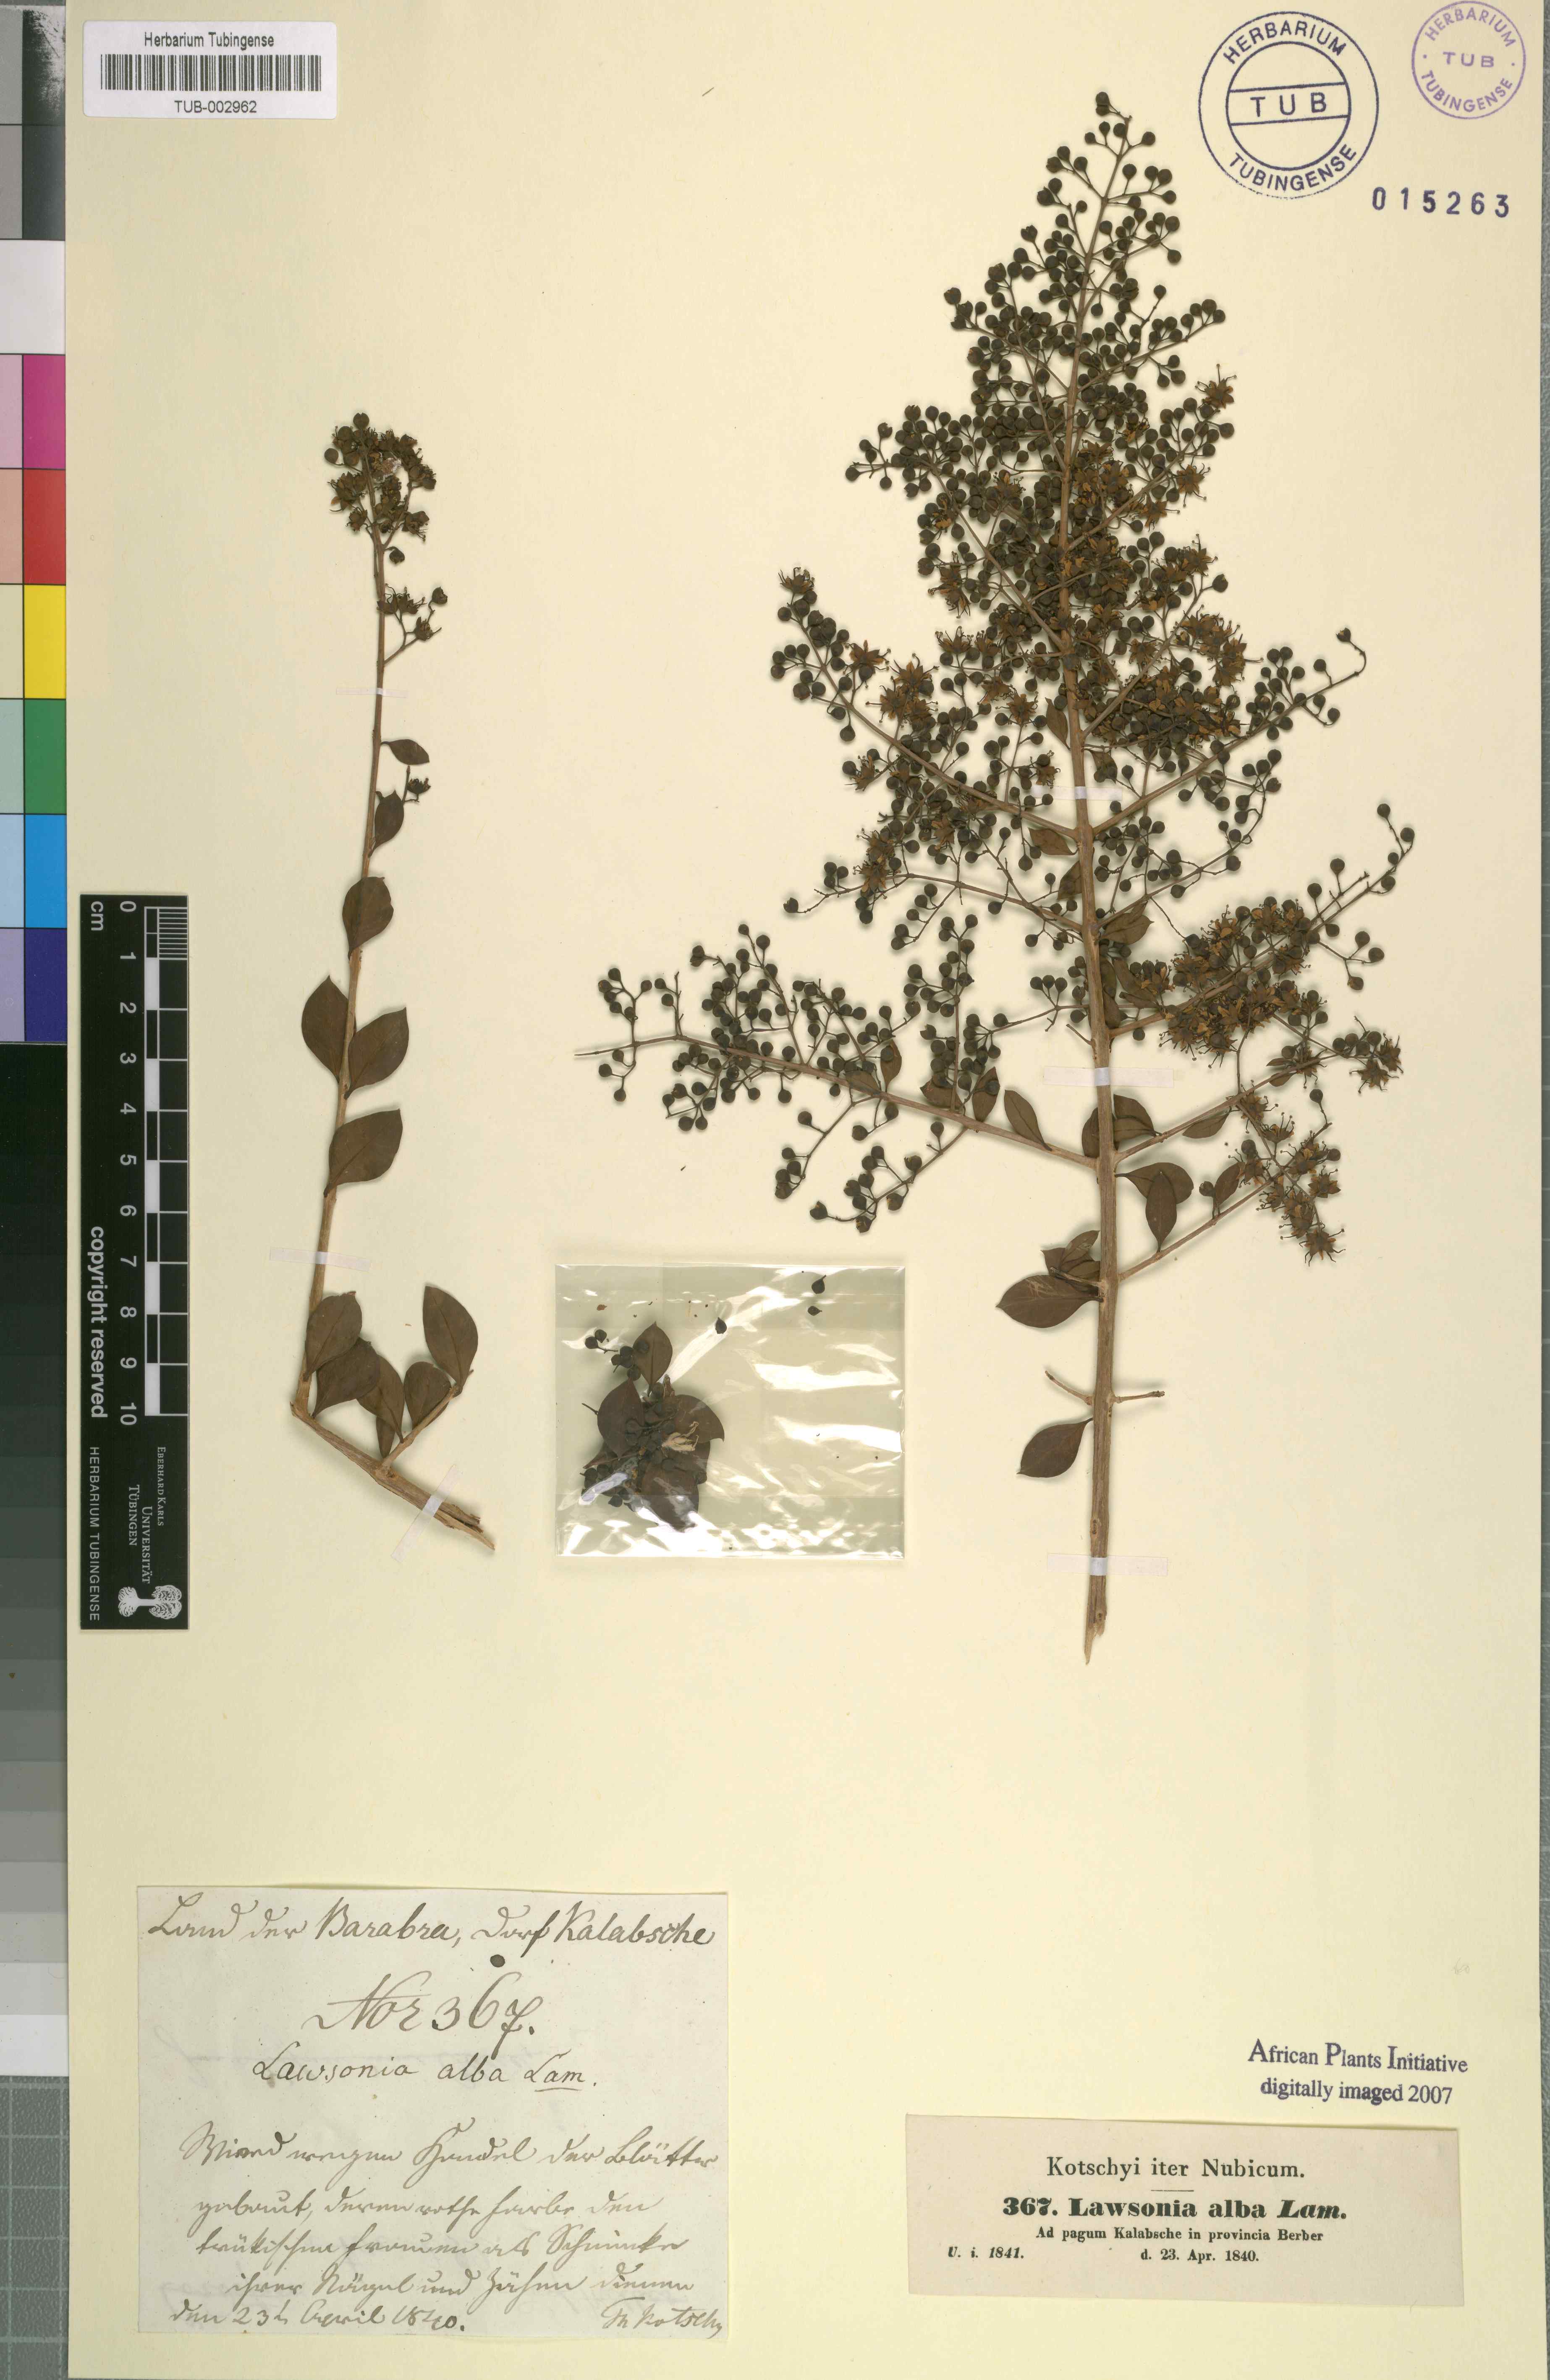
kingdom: Plantae
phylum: Tracheophyta
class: Magnoliopsida
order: Myrtales
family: Lythraceae
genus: Lawsonia
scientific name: Lawsonia inermis
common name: Henna
